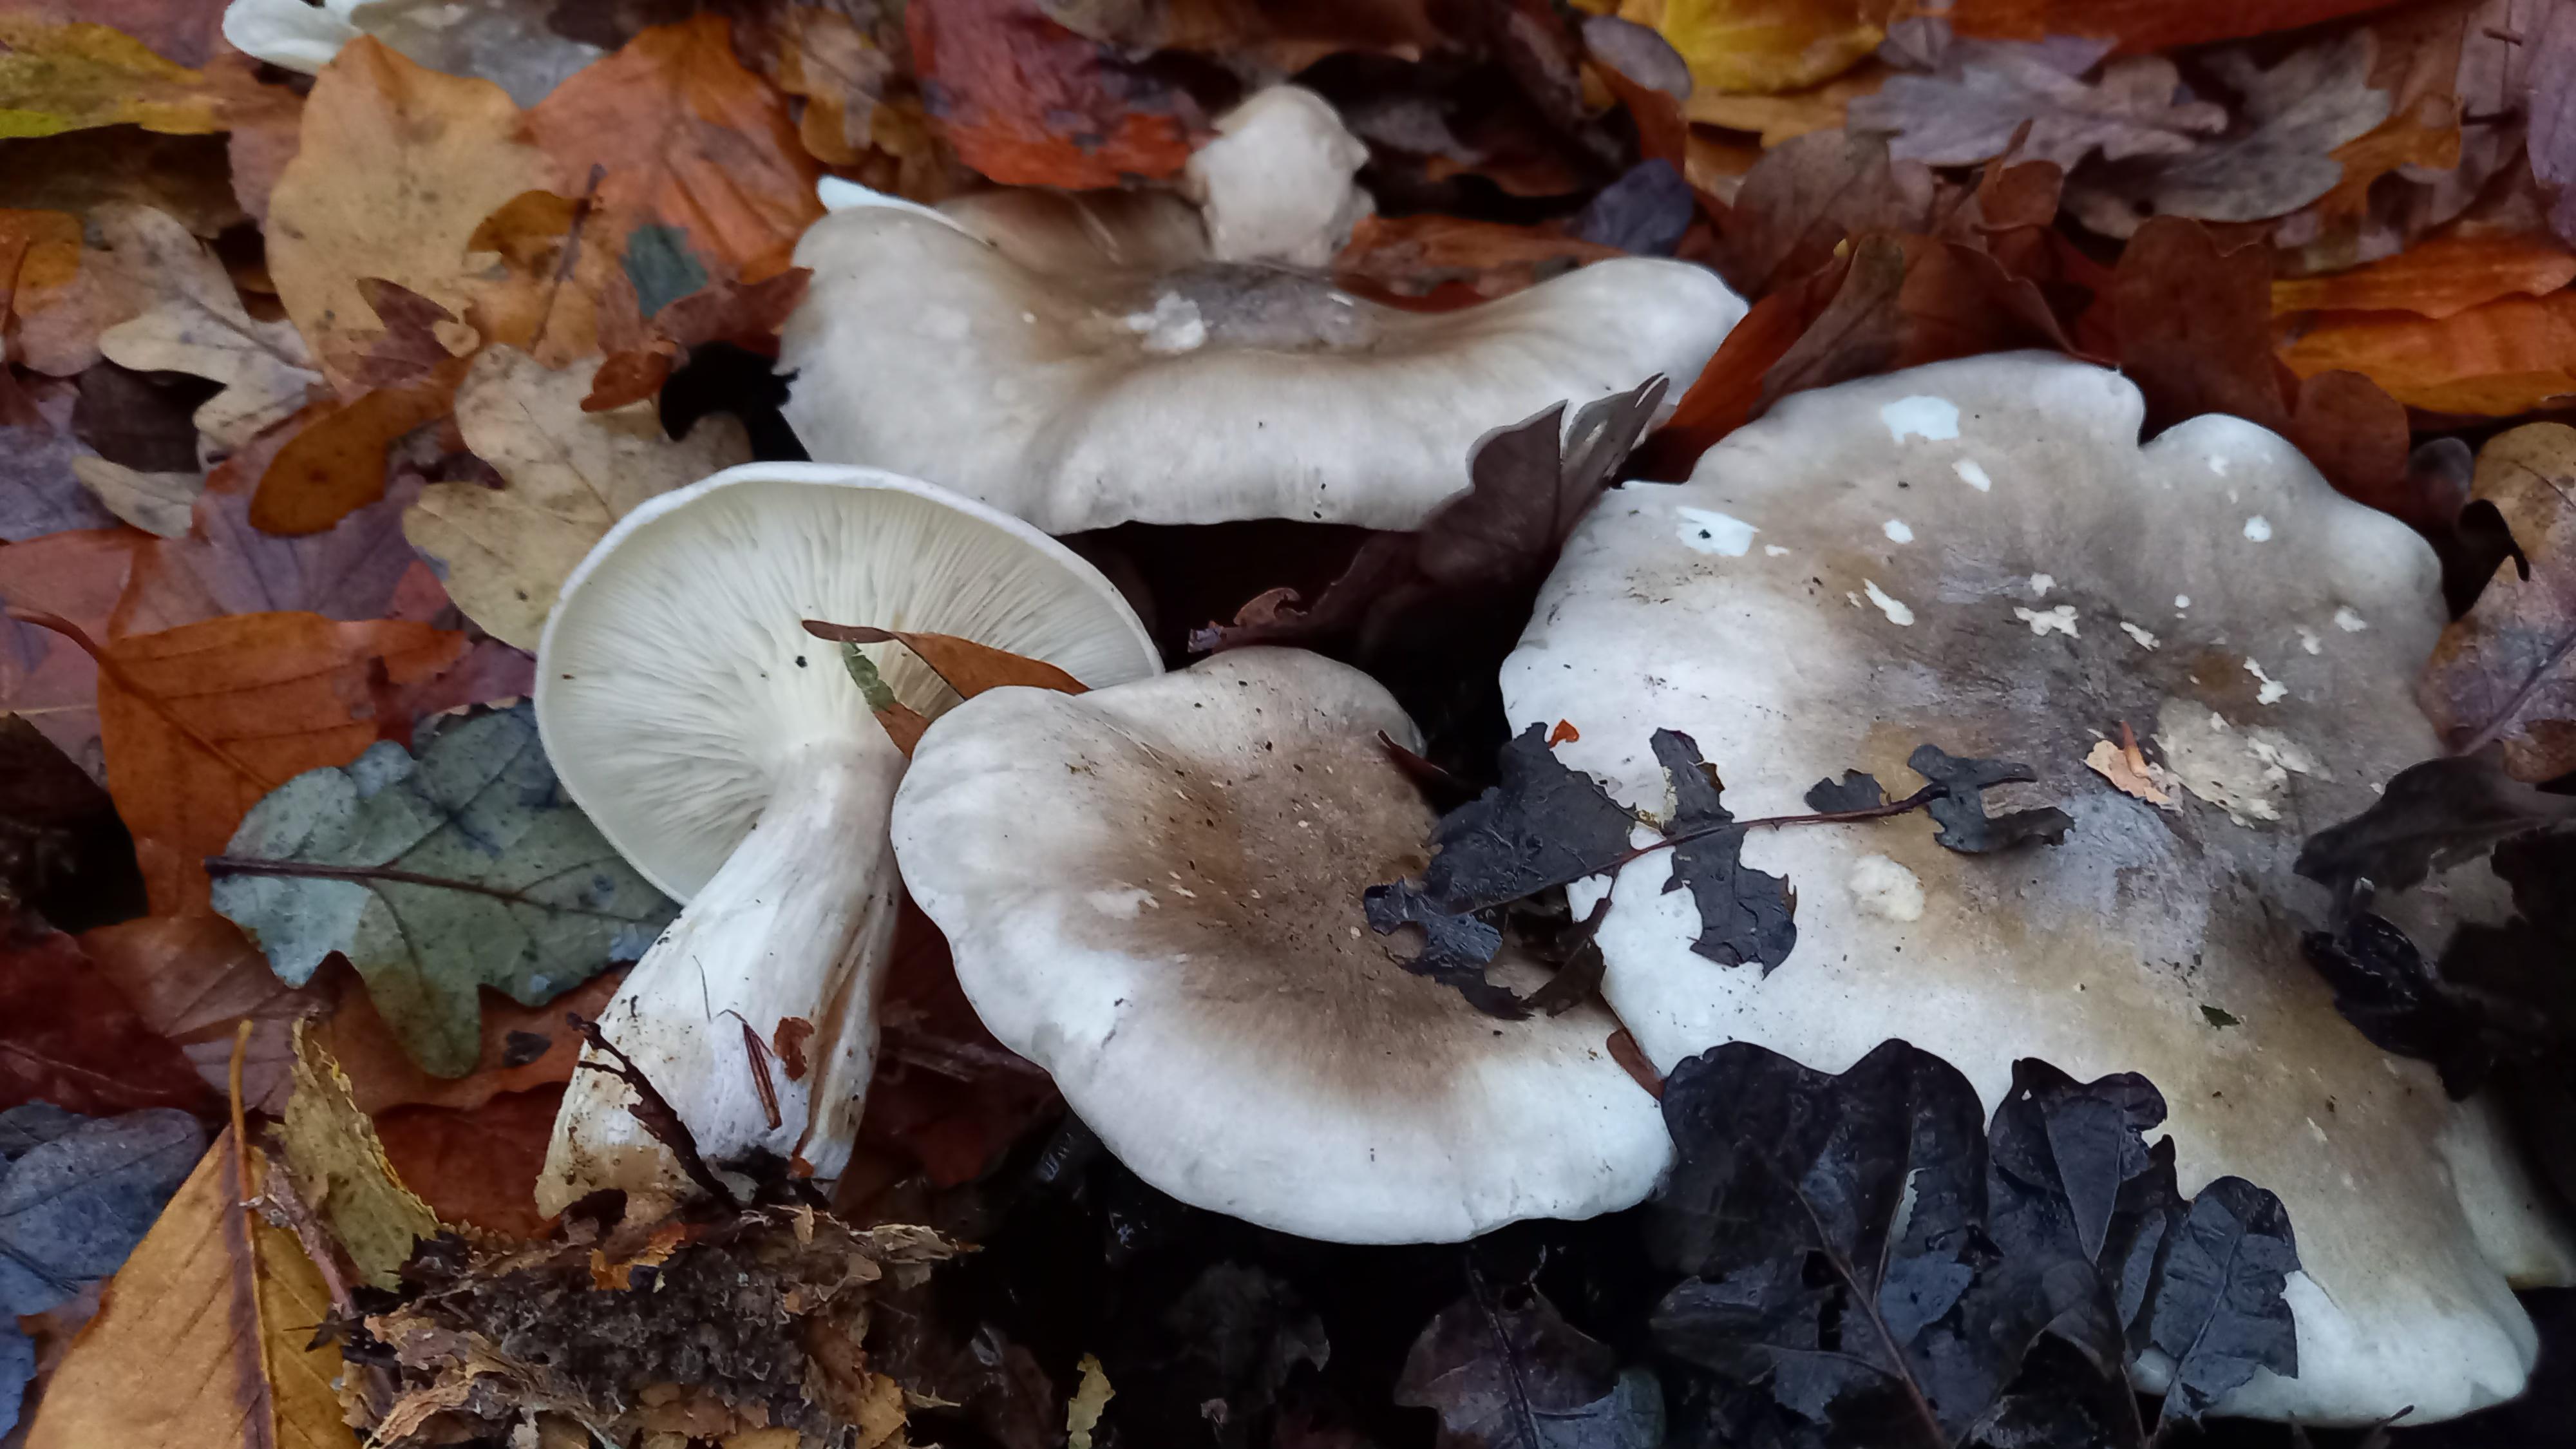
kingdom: Fungi
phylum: Basidiomycota
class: Agaricomycetes
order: Agaricales
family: Tricholomataceae
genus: Clitocybe
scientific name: Clitocybe nebularis
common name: tåge-tragthat
